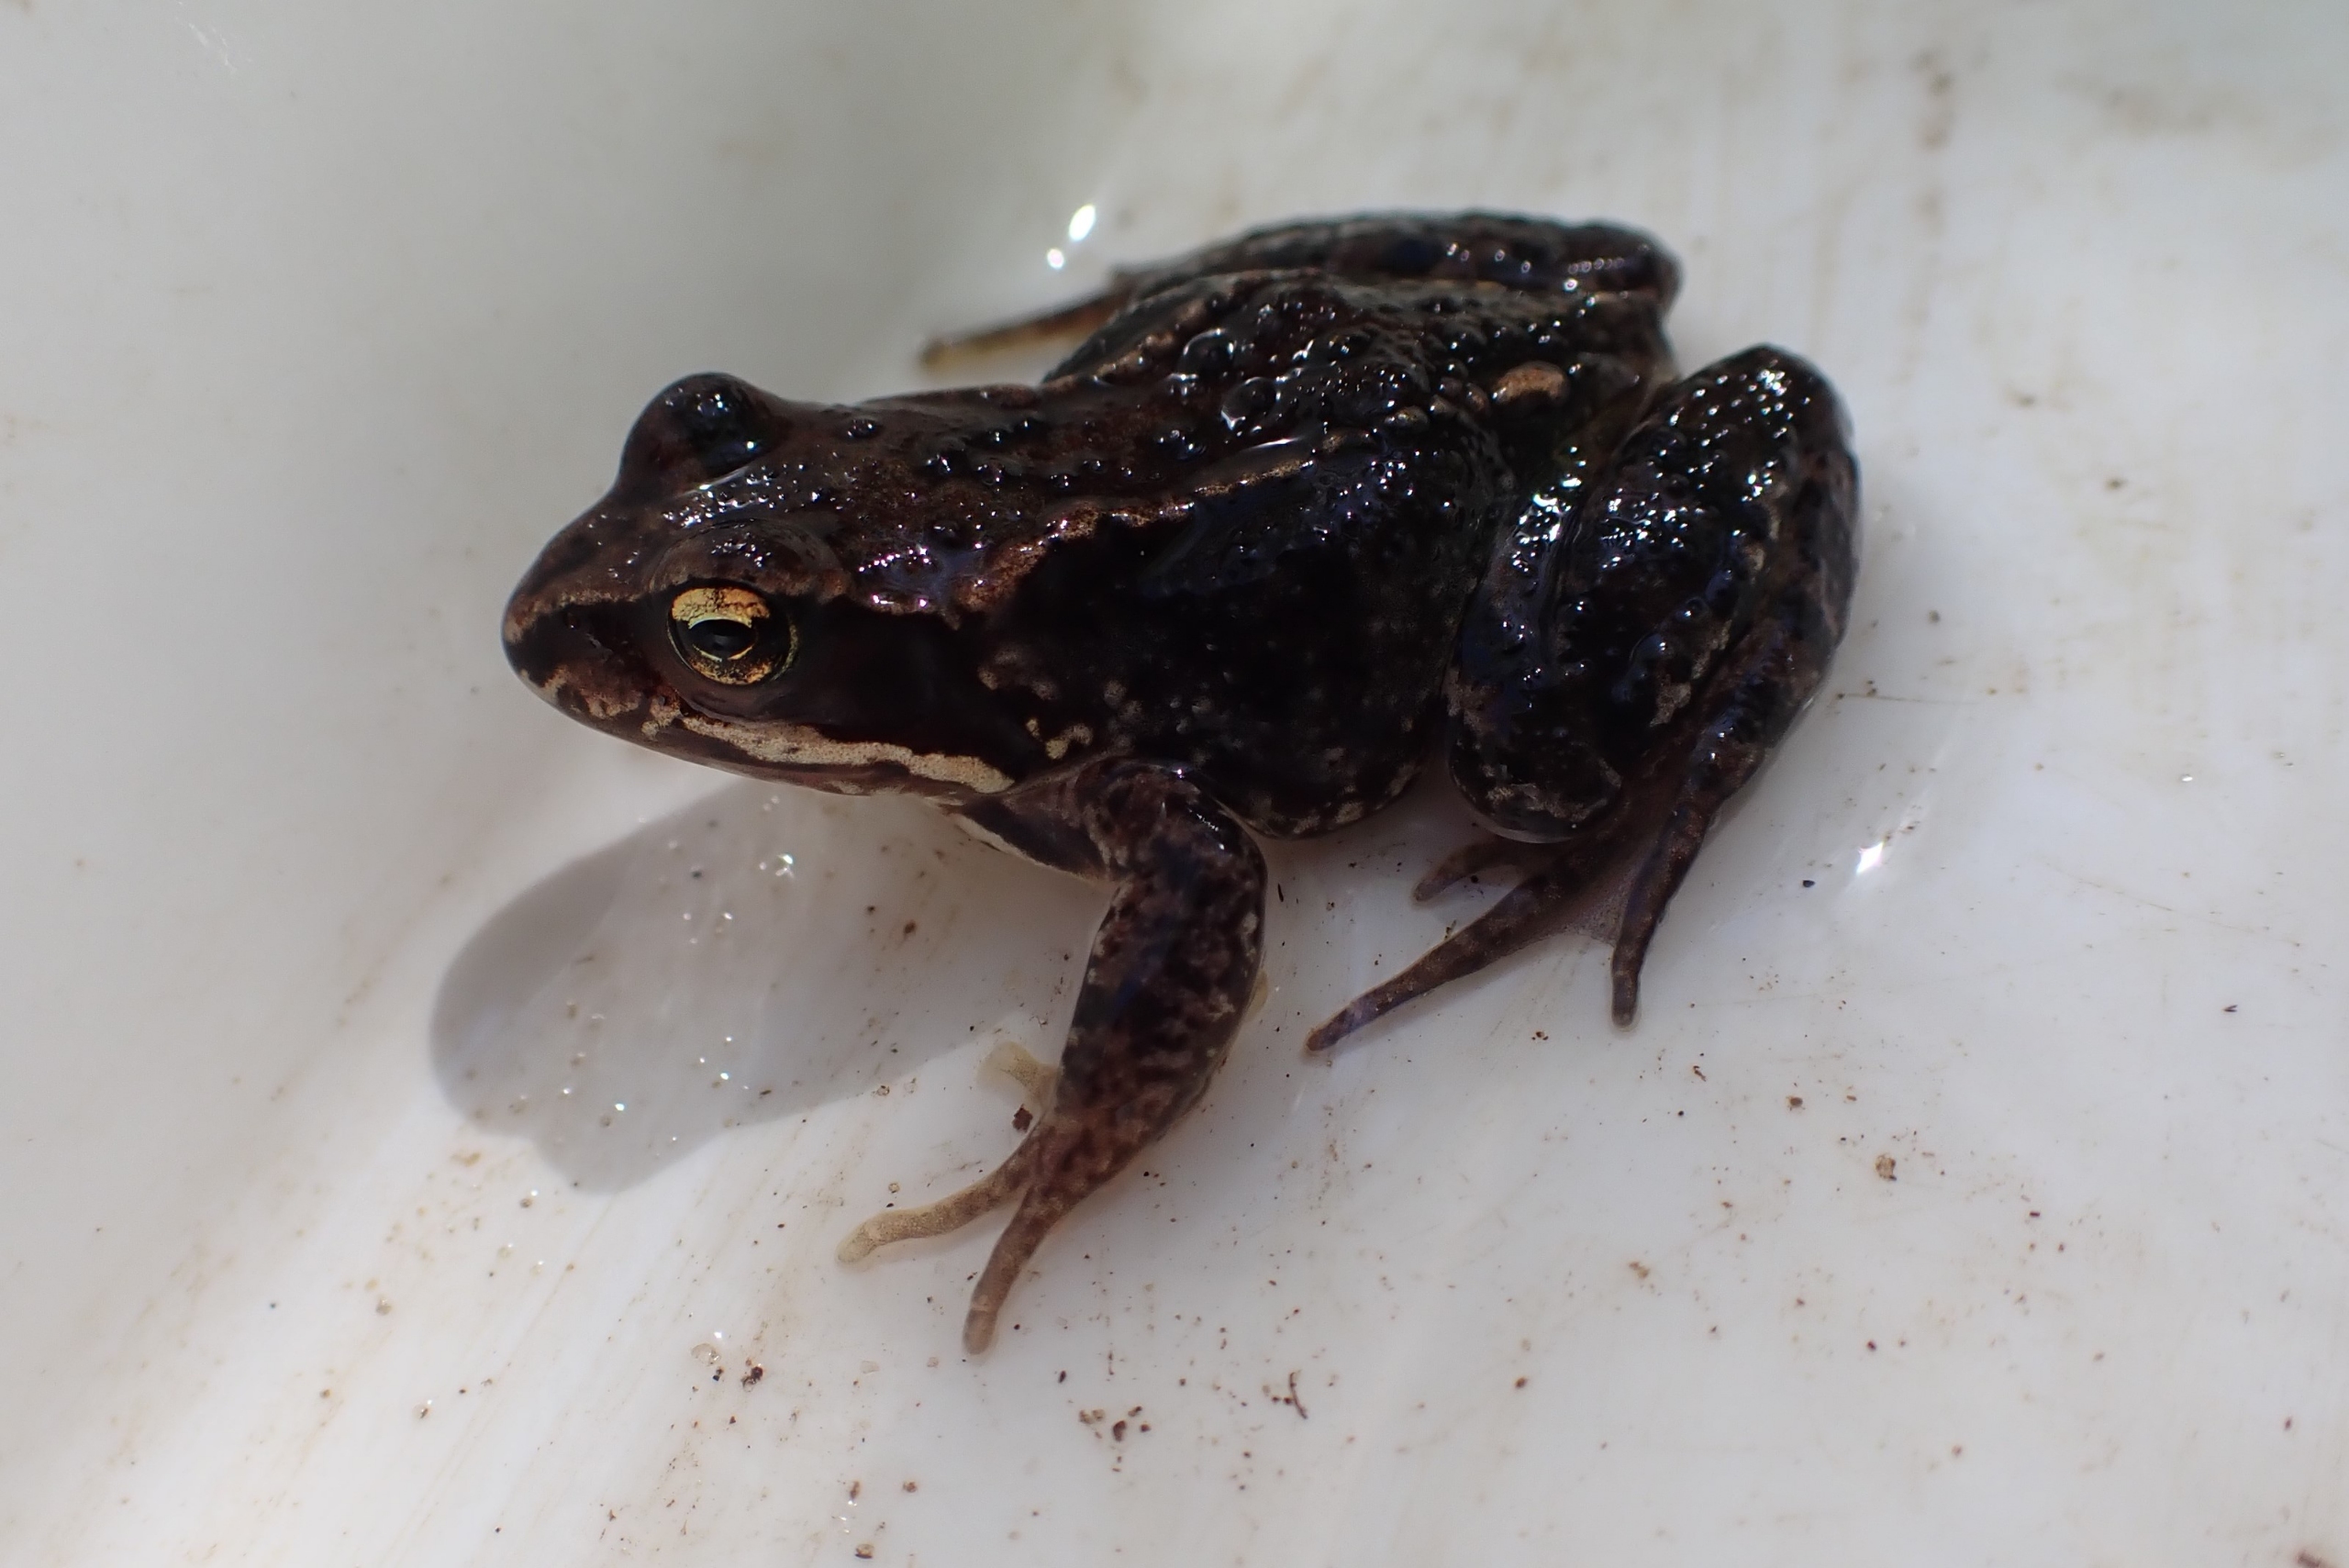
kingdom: Animalia
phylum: Chordata
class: Amphibia
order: Anura
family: Ranidae
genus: Rana
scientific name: Rana temporaria
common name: Butsnudet frø
